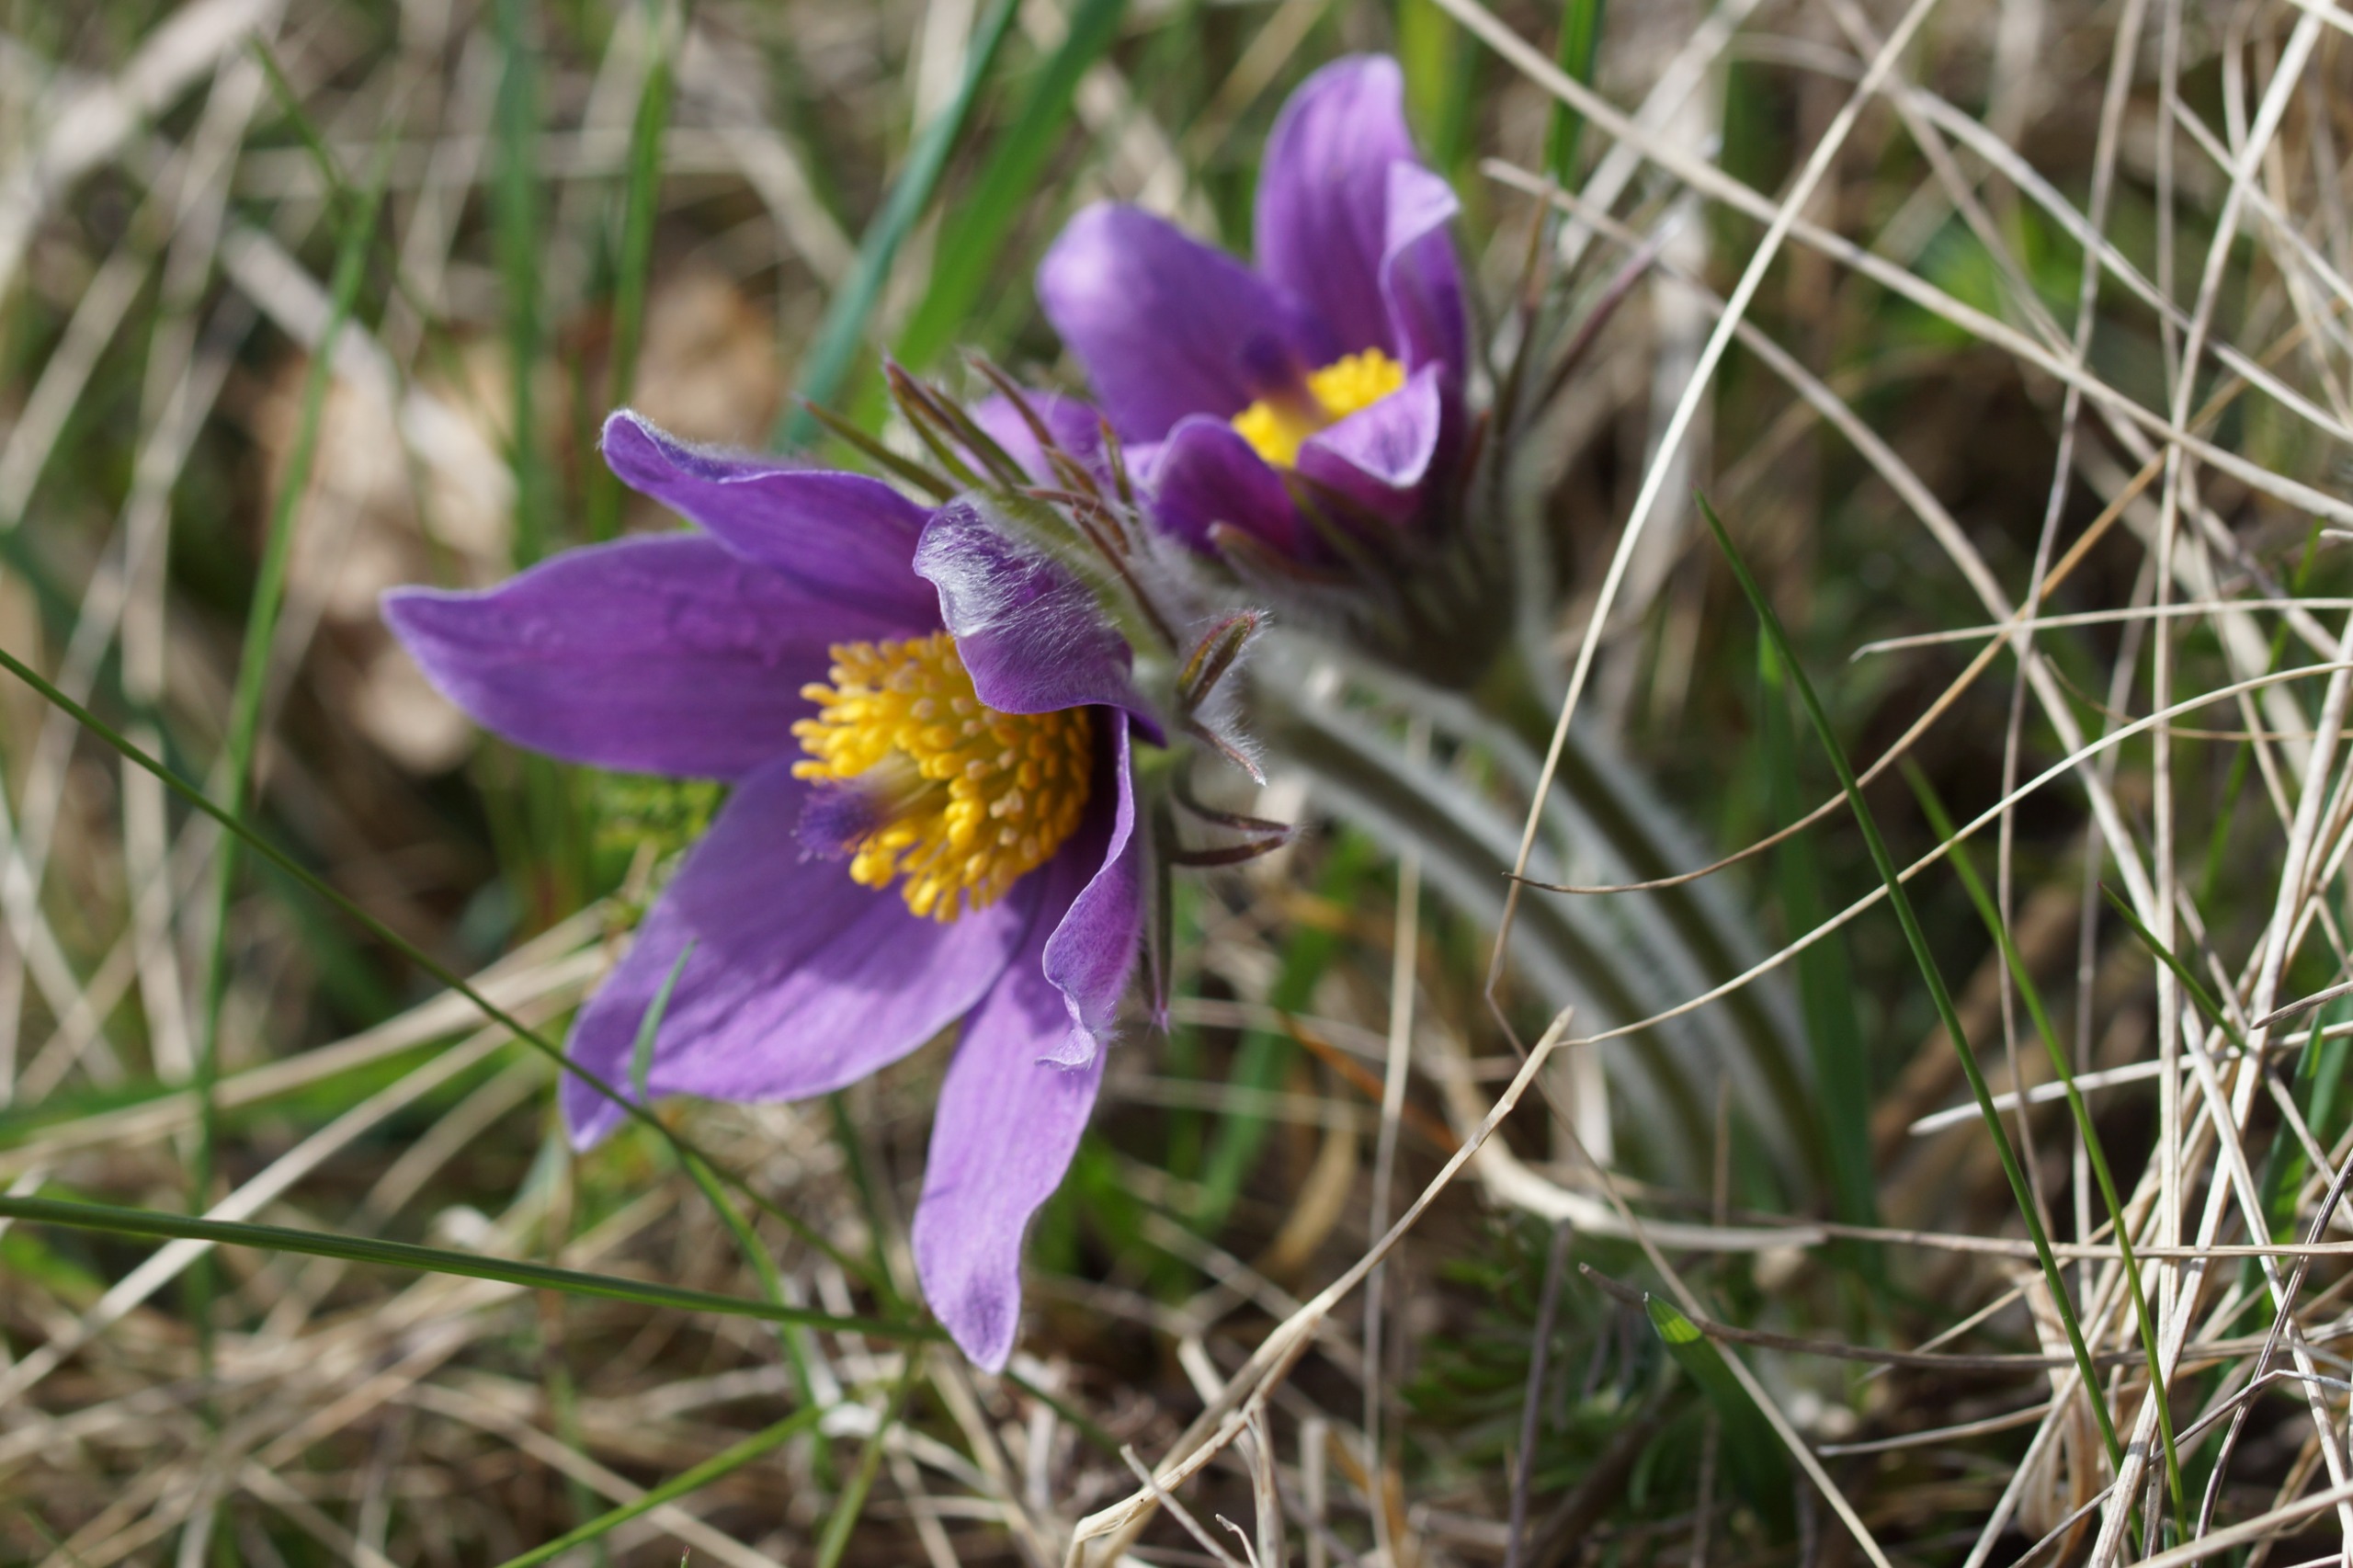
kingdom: Plantae
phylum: Tracheophyta
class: Magnoliopsida
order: Ranunculales
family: Ranunculaceae
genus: Pulsatilla
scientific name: Pulsatilla vulgaris
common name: Opret kobjælde
